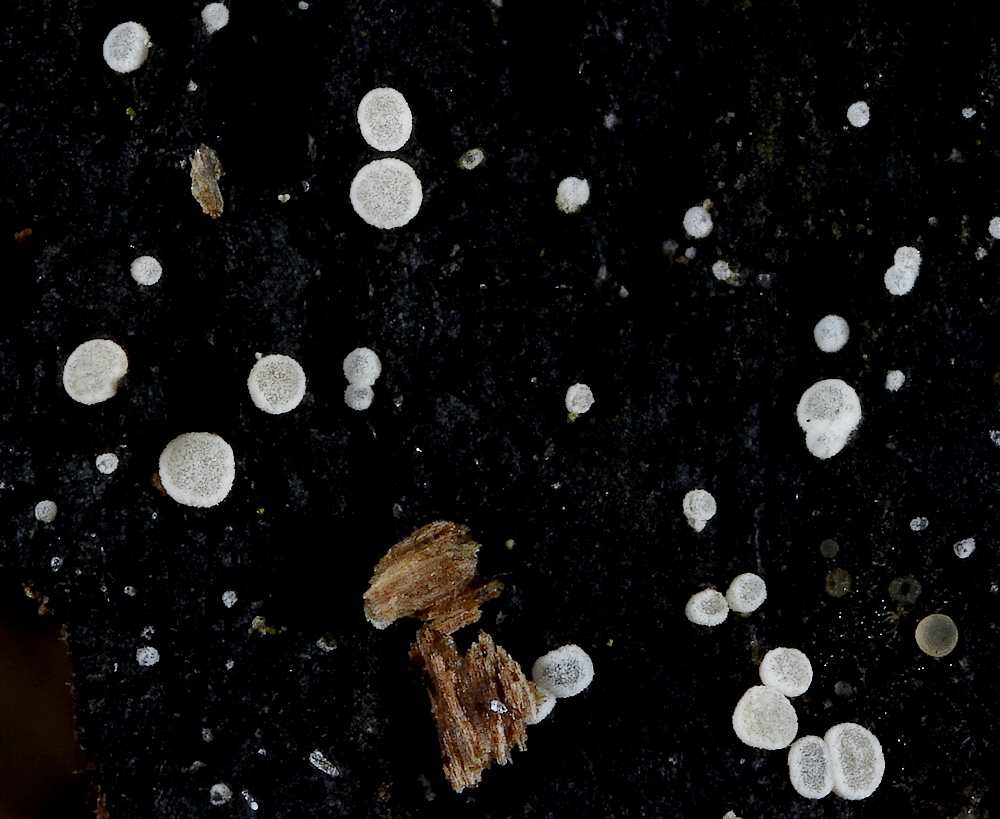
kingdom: Fungi
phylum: Ascomycota
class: Leotiomycetes
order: Helotiales
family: Hyaloscyphaceae
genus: Polydesmia
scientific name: Polydesmia pruinosa
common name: dunskive
